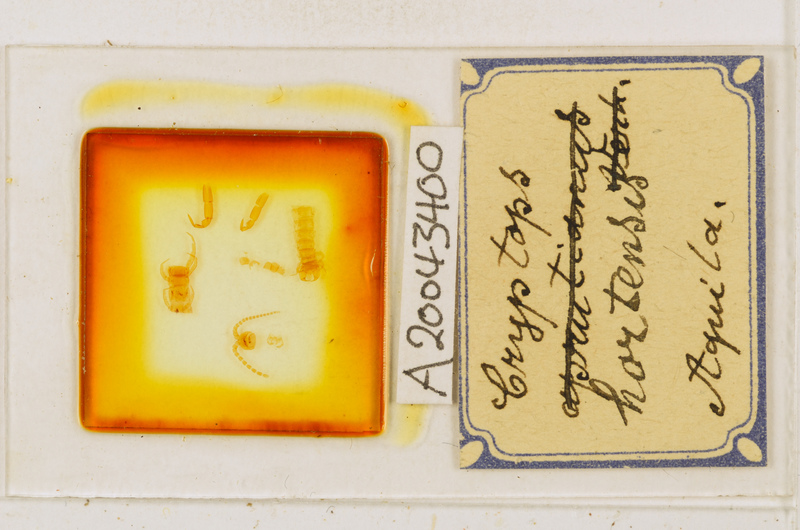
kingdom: Animalia
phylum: Arthropoda
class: Chilopoda
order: Scolopendromorpha
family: Cryptopidae
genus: Cryptops
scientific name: Cryptops hortensis
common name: Centipede
